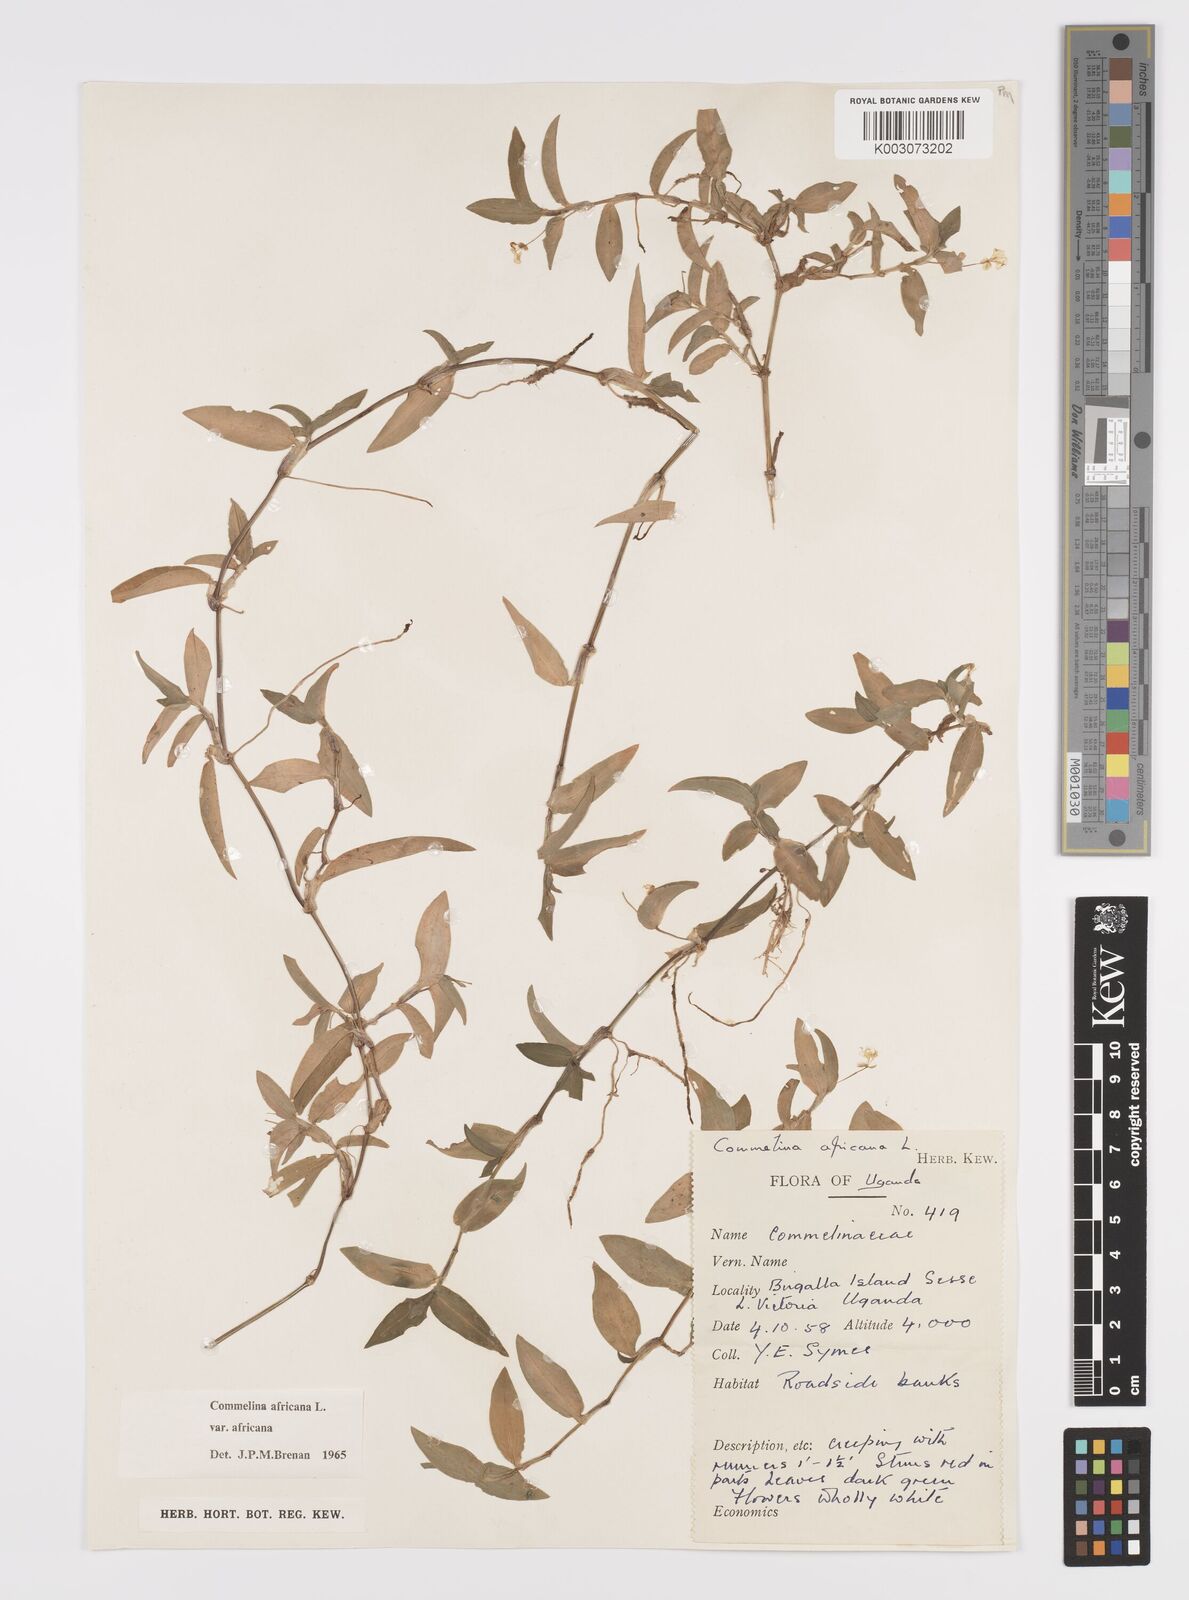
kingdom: Plantae
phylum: Tracheophyta
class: Liliopsida
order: Commelinales
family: Commelinaceae
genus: Commelina
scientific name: Commelina africana
